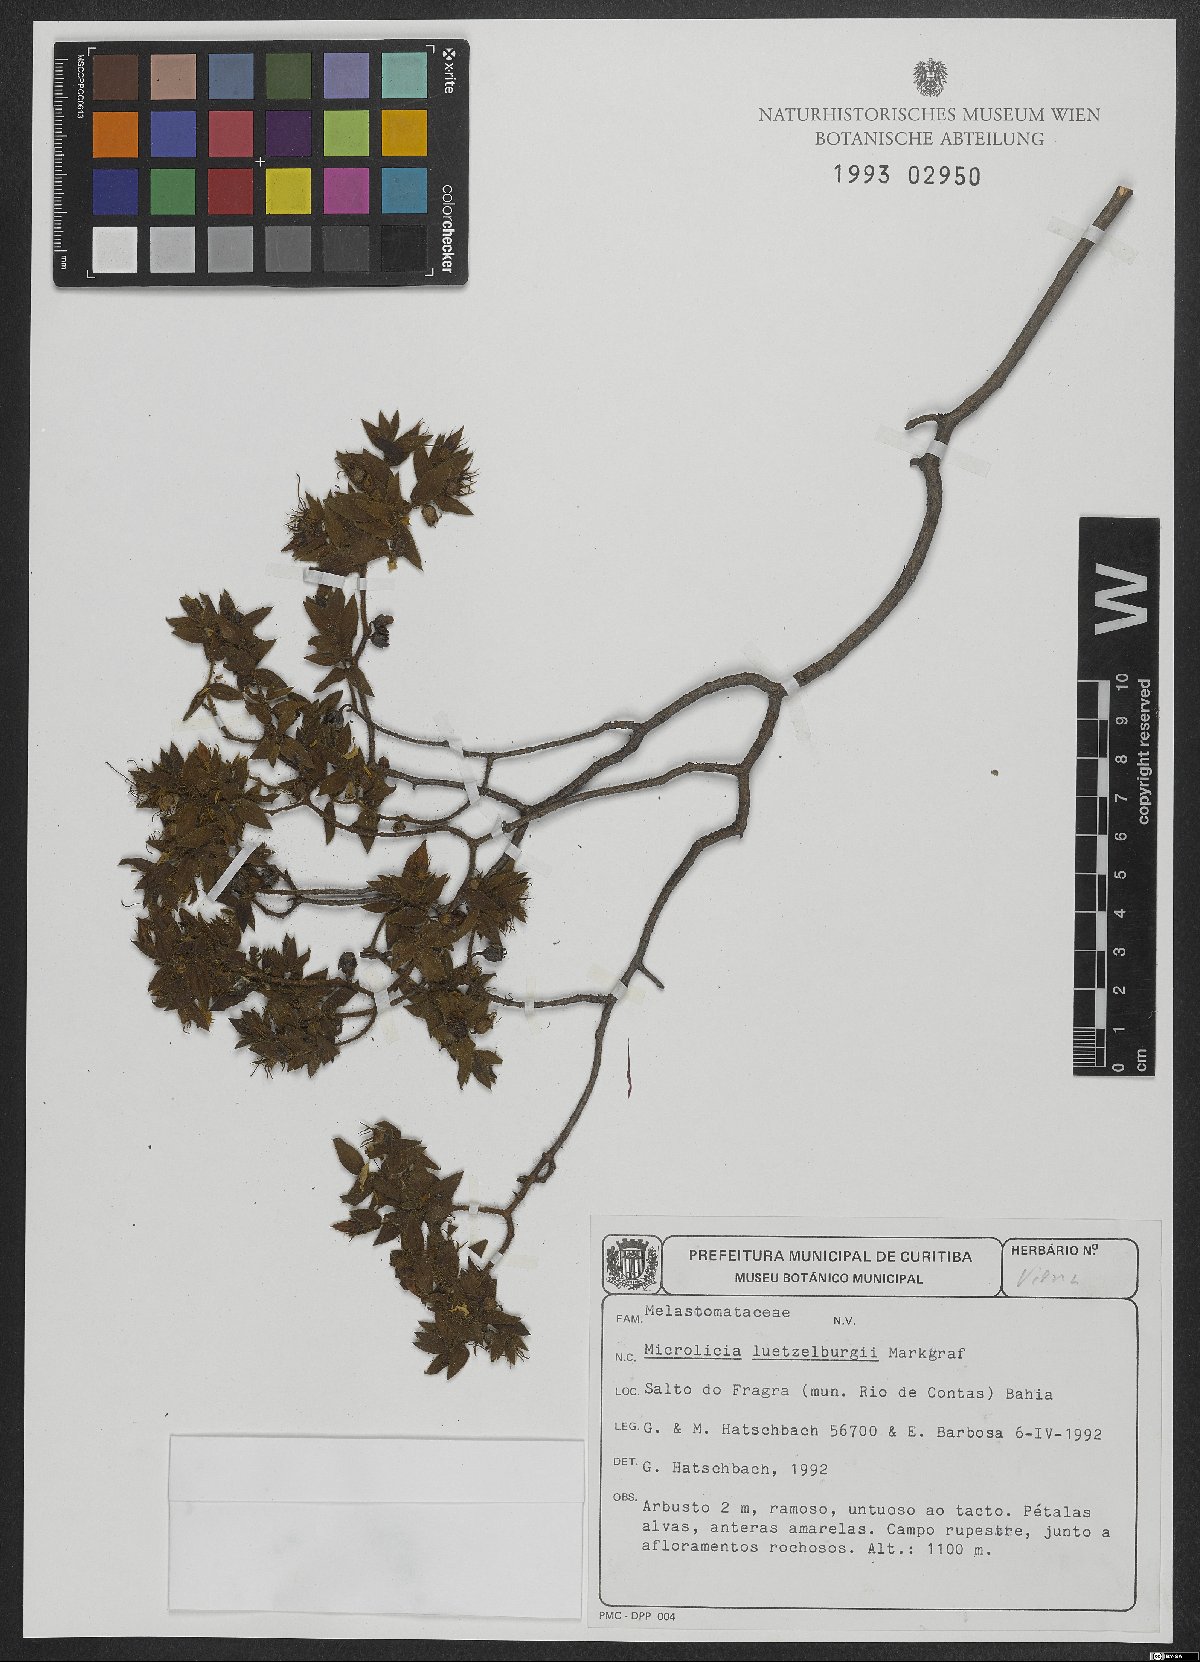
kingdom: Plantae
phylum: Tracheophyta
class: Magnoliopsida
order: Myrtales
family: Melastomataceae
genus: Microlicia
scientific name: Microlicia luetzelburgii
